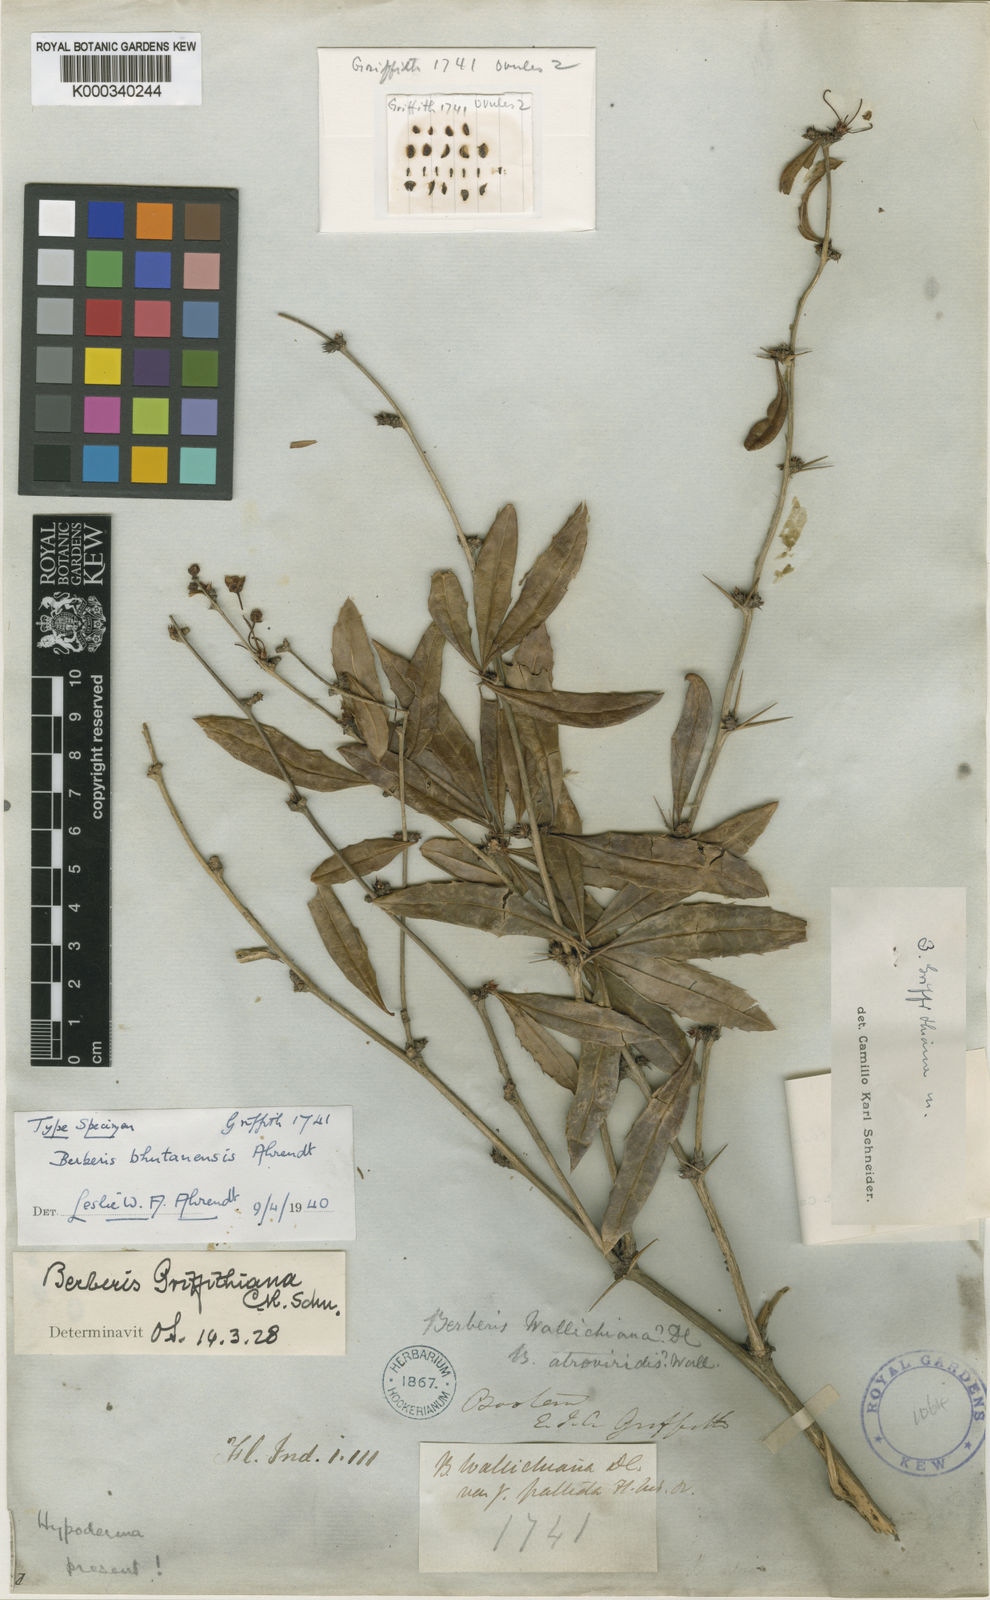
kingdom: Plantae
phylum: Tracheophyta
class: Magnoliopsida
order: Ranunculales
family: Berberidaceae
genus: Berberis
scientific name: Berberis griffithiana
